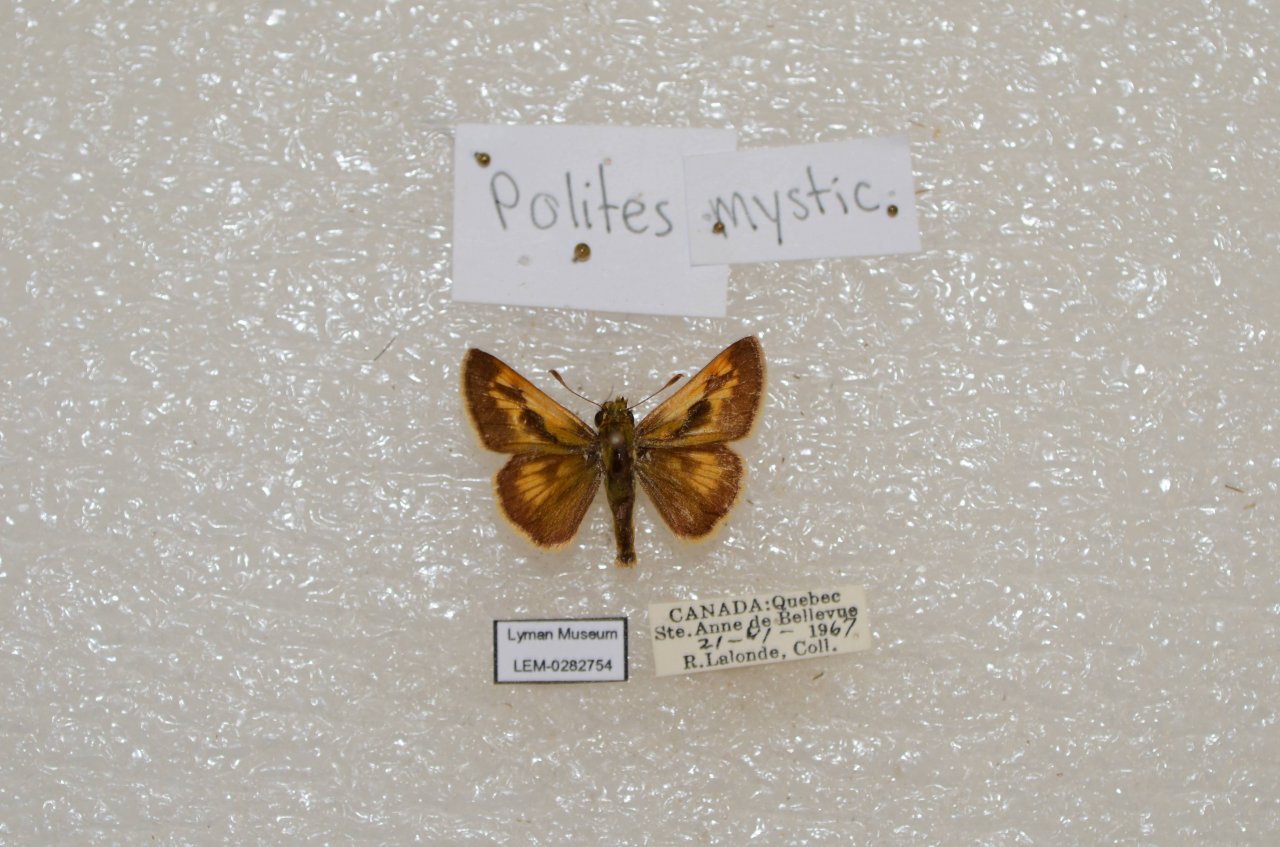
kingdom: Animalia
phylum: Arthropoda
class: Insecta
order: Lepidoptera
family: Hesperiidae
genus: Polites
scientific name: Polites
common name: Long Dash Skipper
